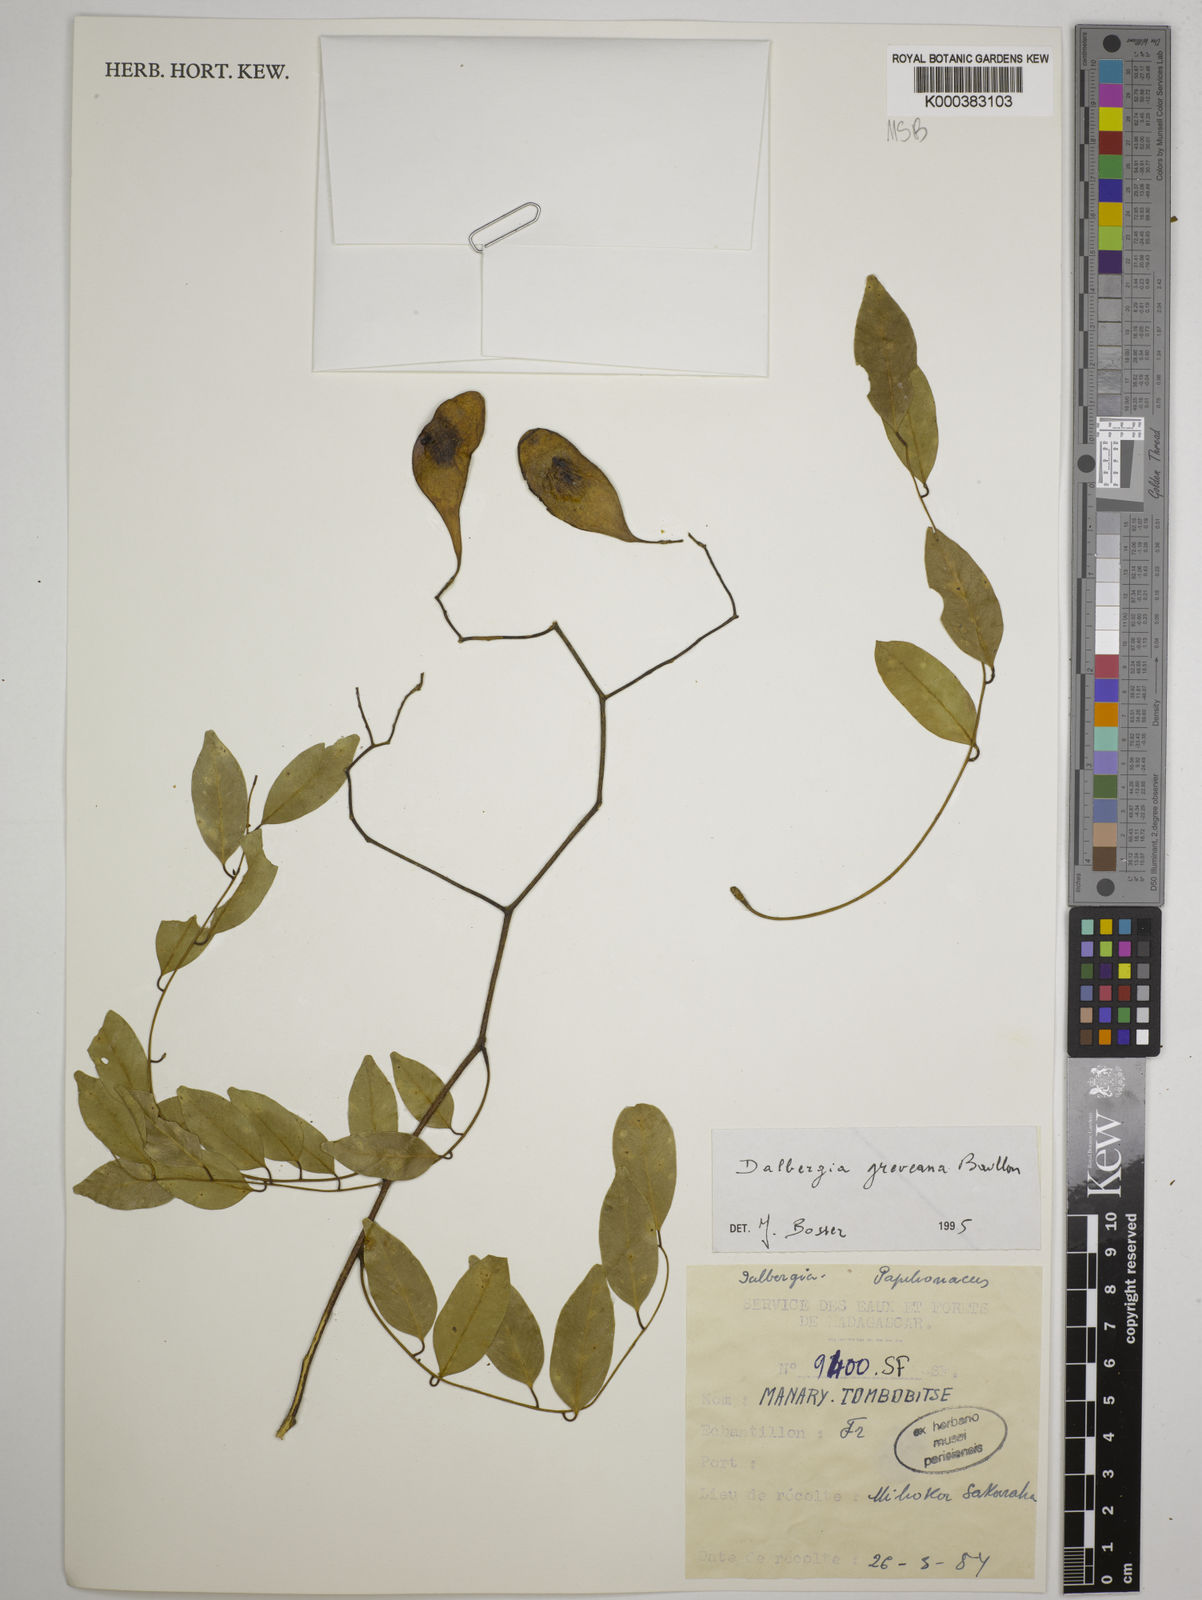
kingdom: Plantae
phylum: Tracheophyta
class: Magnoliopsida
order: Fabales
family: Fabaceae
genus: Dalbergia
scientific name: Dalbergia greveana
